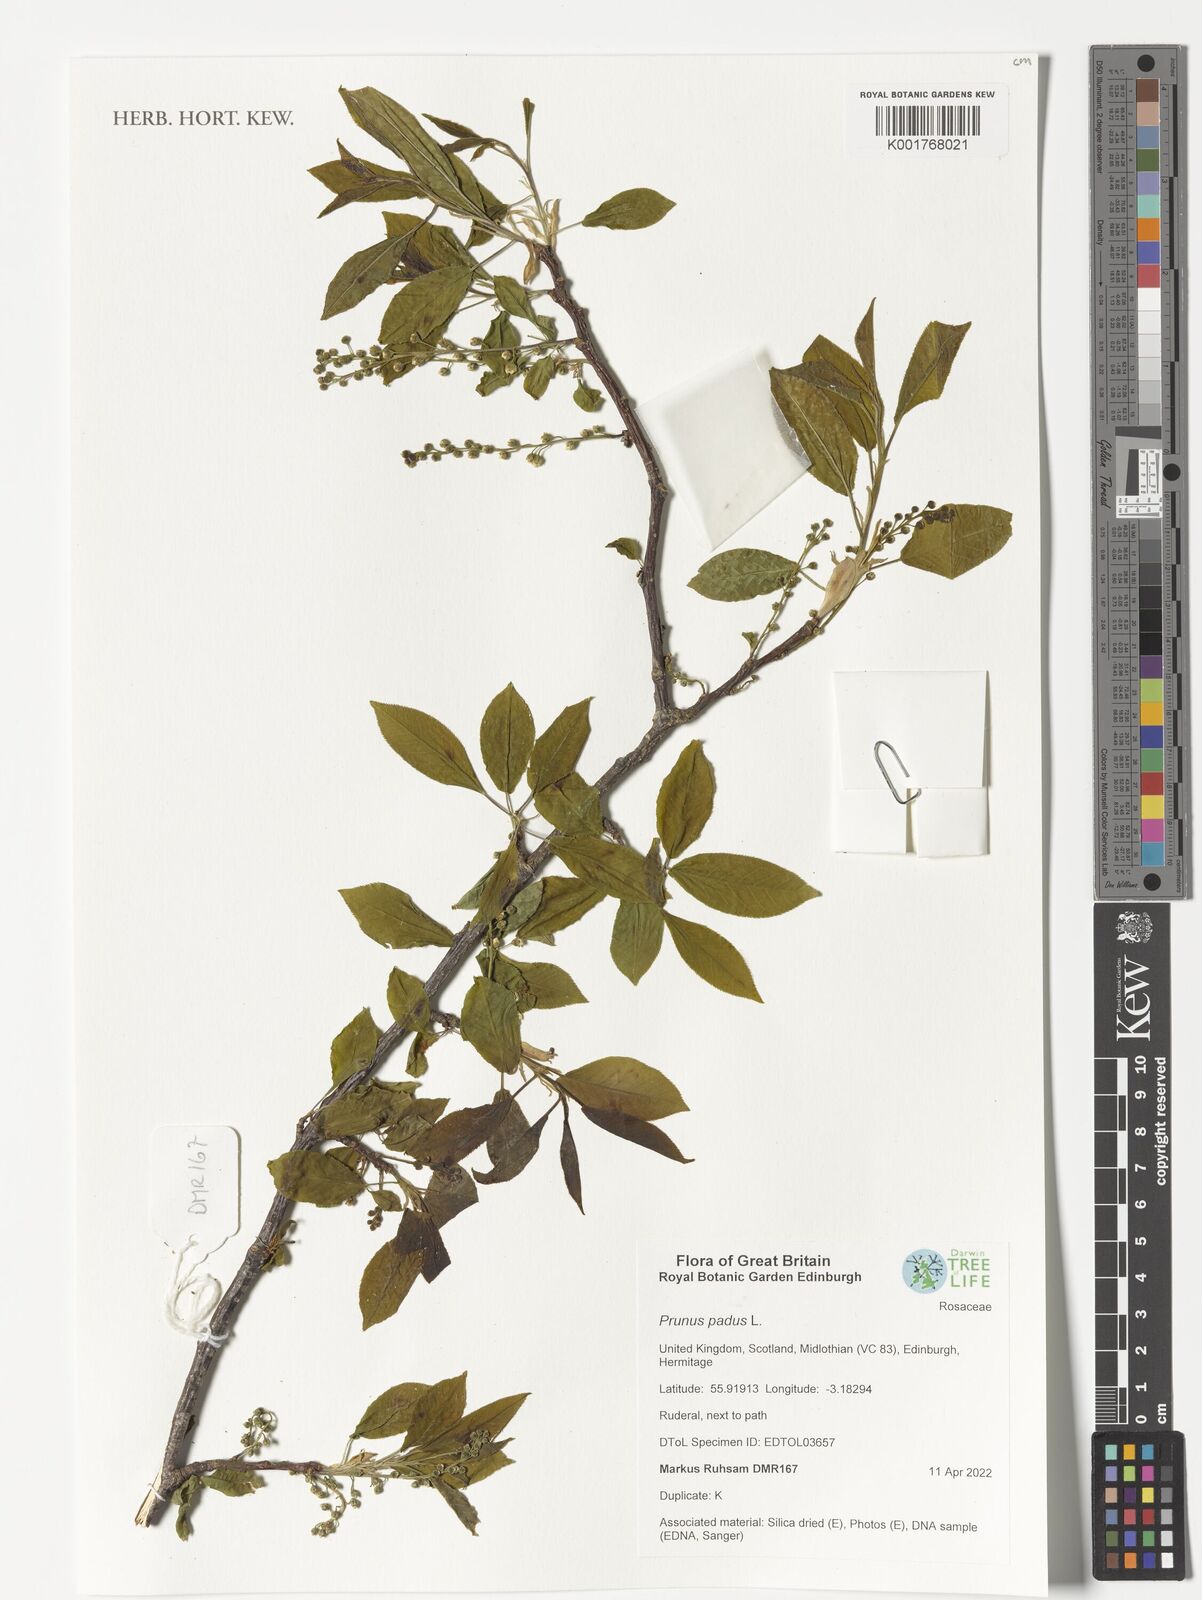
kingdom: Plantae
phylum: Tracheophyta
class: Magnoliopsida
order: Rosales
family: Rosaceae
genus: Prunus
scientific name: Prunus padus
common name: Bird cherry
